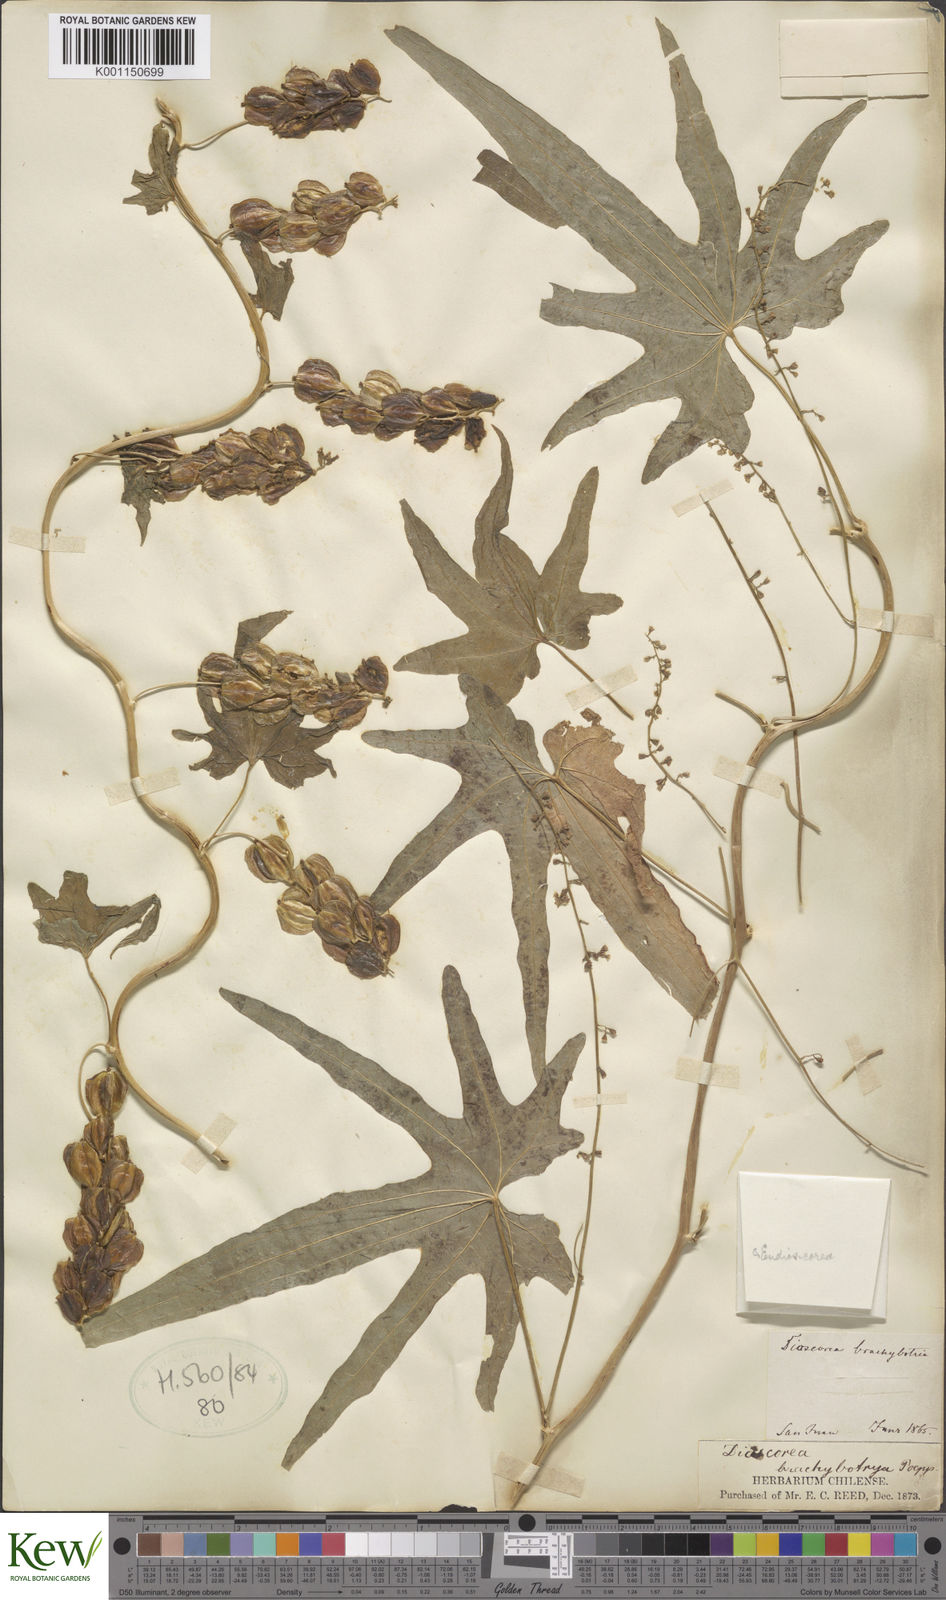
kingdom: Plantae
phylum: Tracheophyta
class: Liliopsida
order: Dioscoreales
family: Dioscoreaceae
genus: Dioscorea
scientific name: Dioscorea brachybotrya
